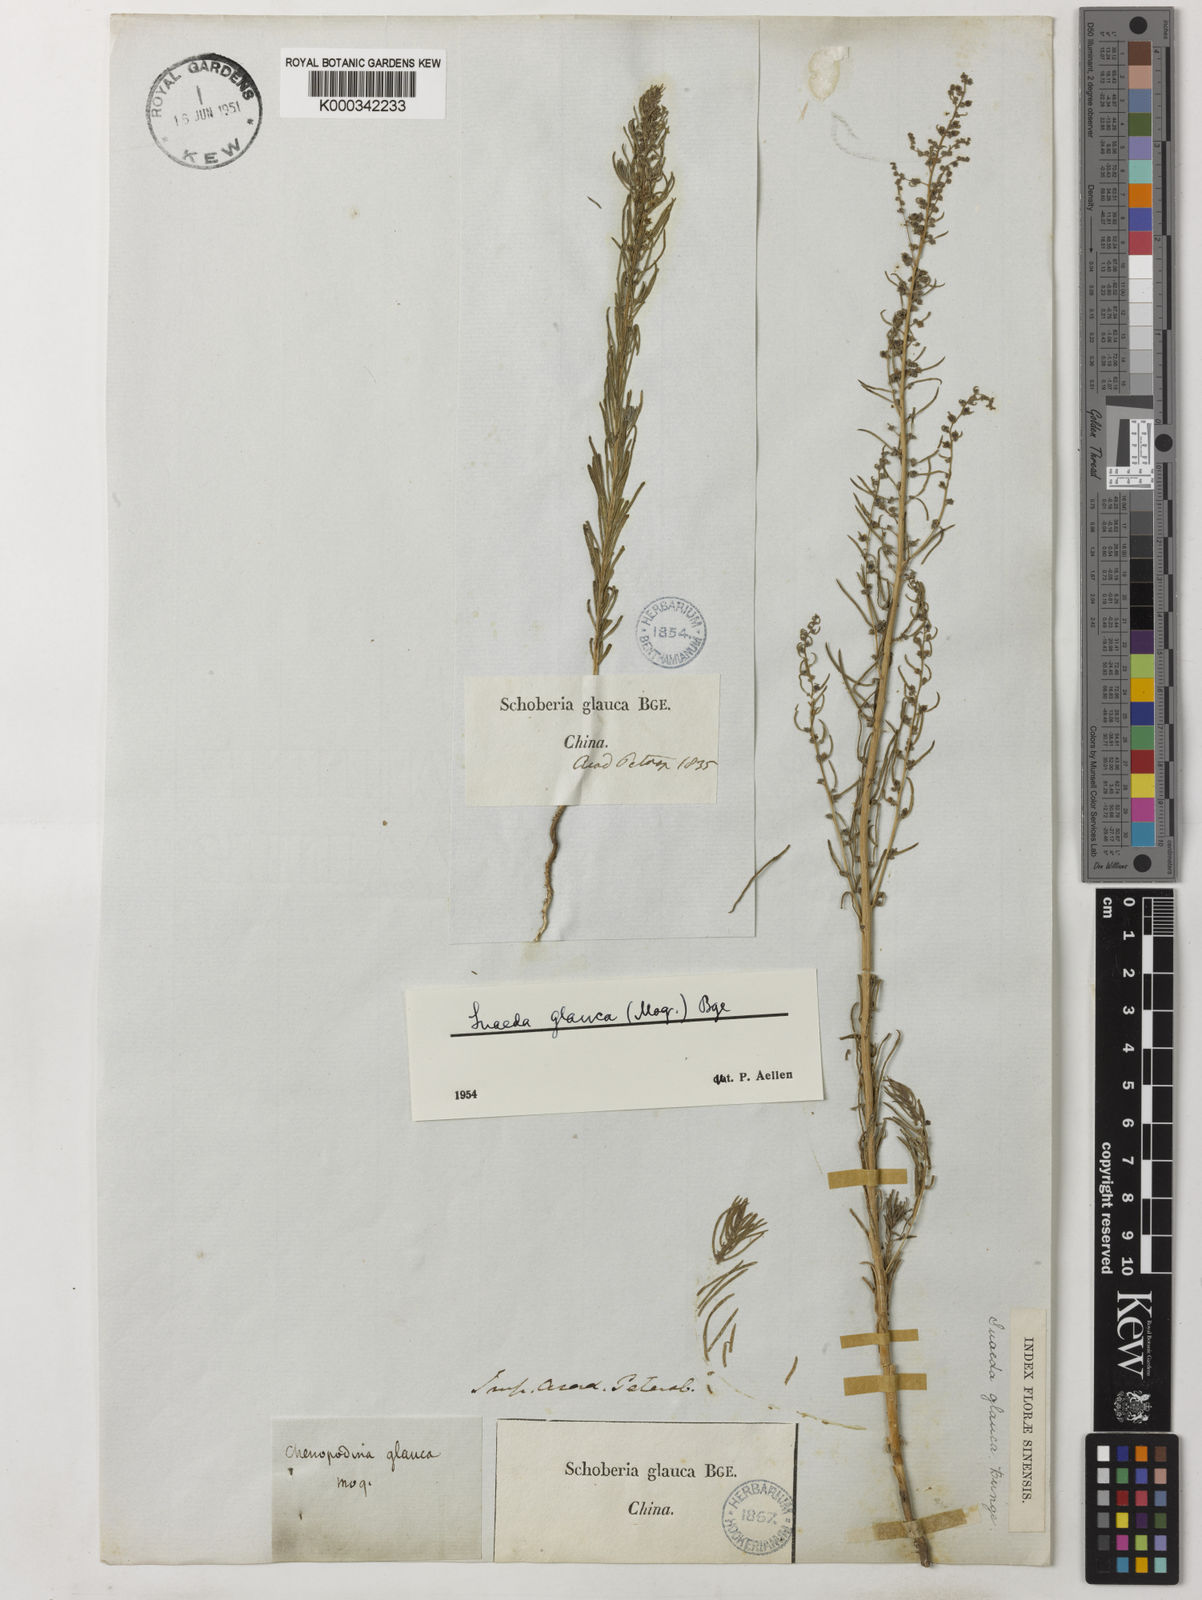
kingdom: Plantae
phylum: Tracheophyta
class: Magnoliopsida
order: Caryophyllales
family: Amaranthaceae
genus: Suaeda
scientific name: Suaeda glauca
